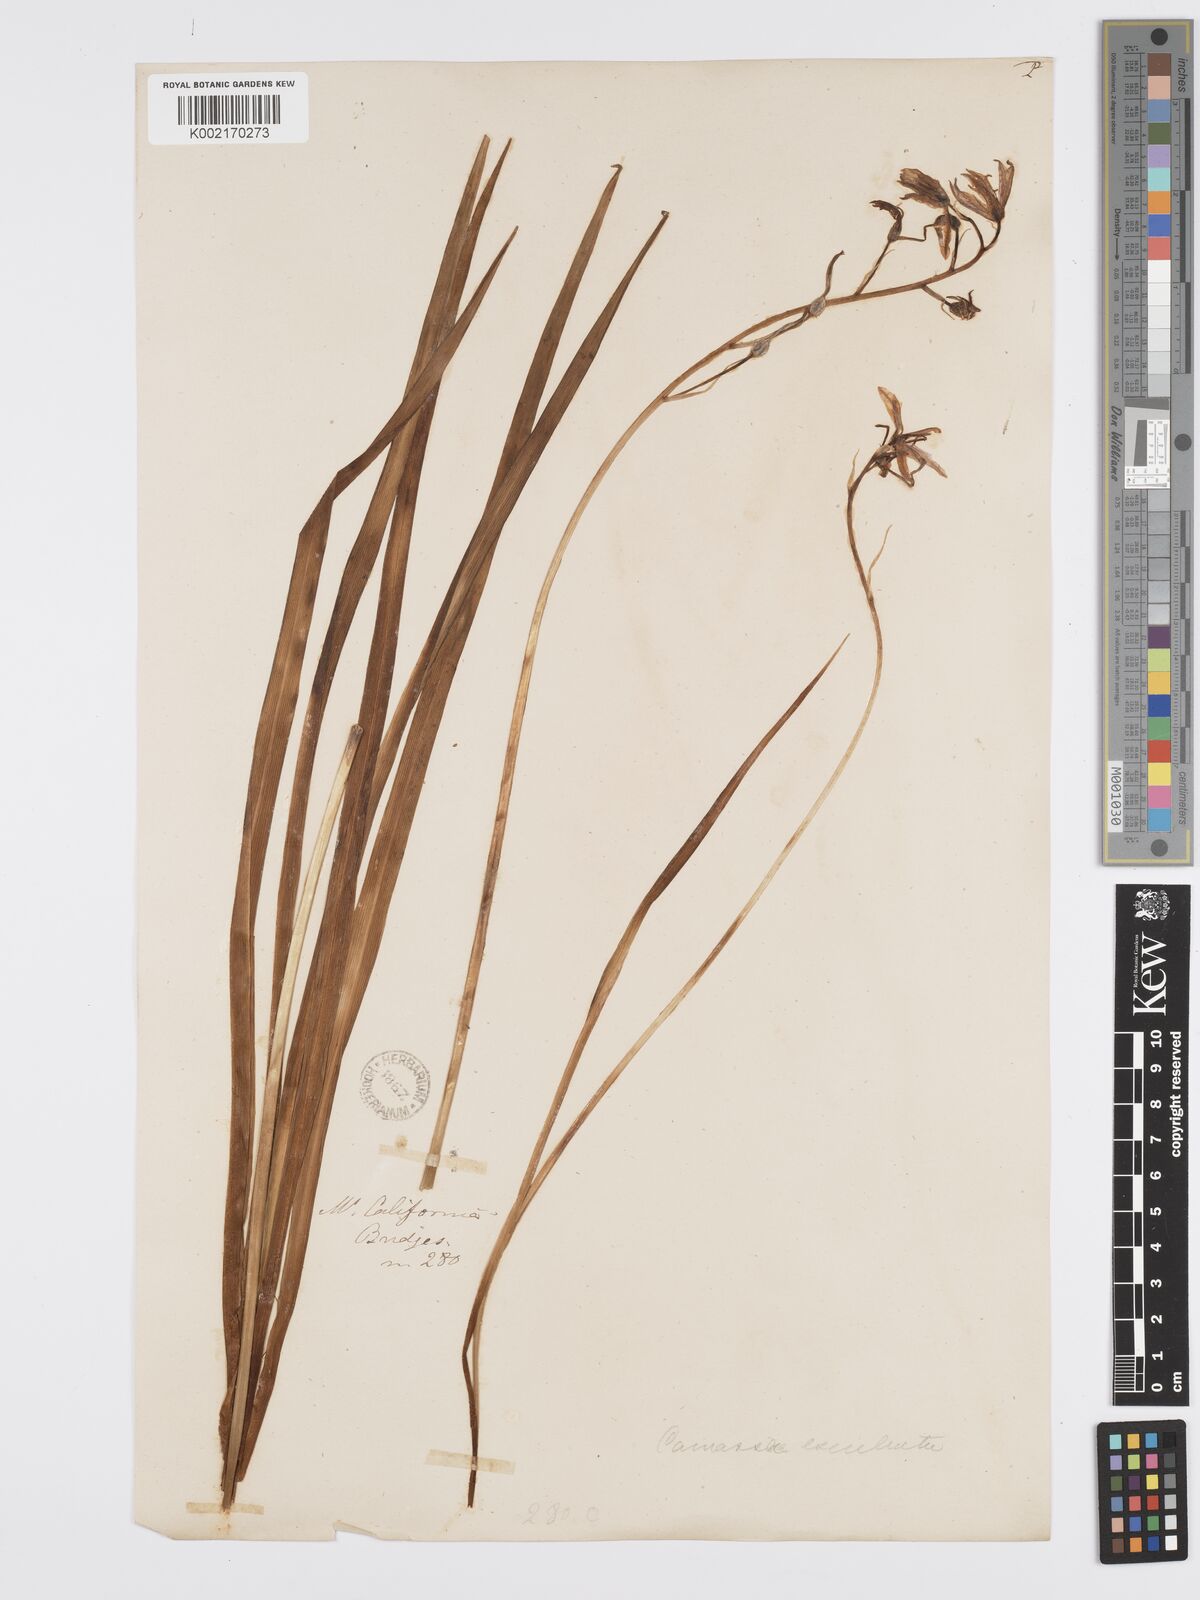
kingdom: Plantae
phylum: Tracheophyta
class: Liliopsida
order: Asparagales
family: Asparagaceae
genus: Camassia
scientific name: Camassia leichtlinii
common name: Leichtlin's camas
